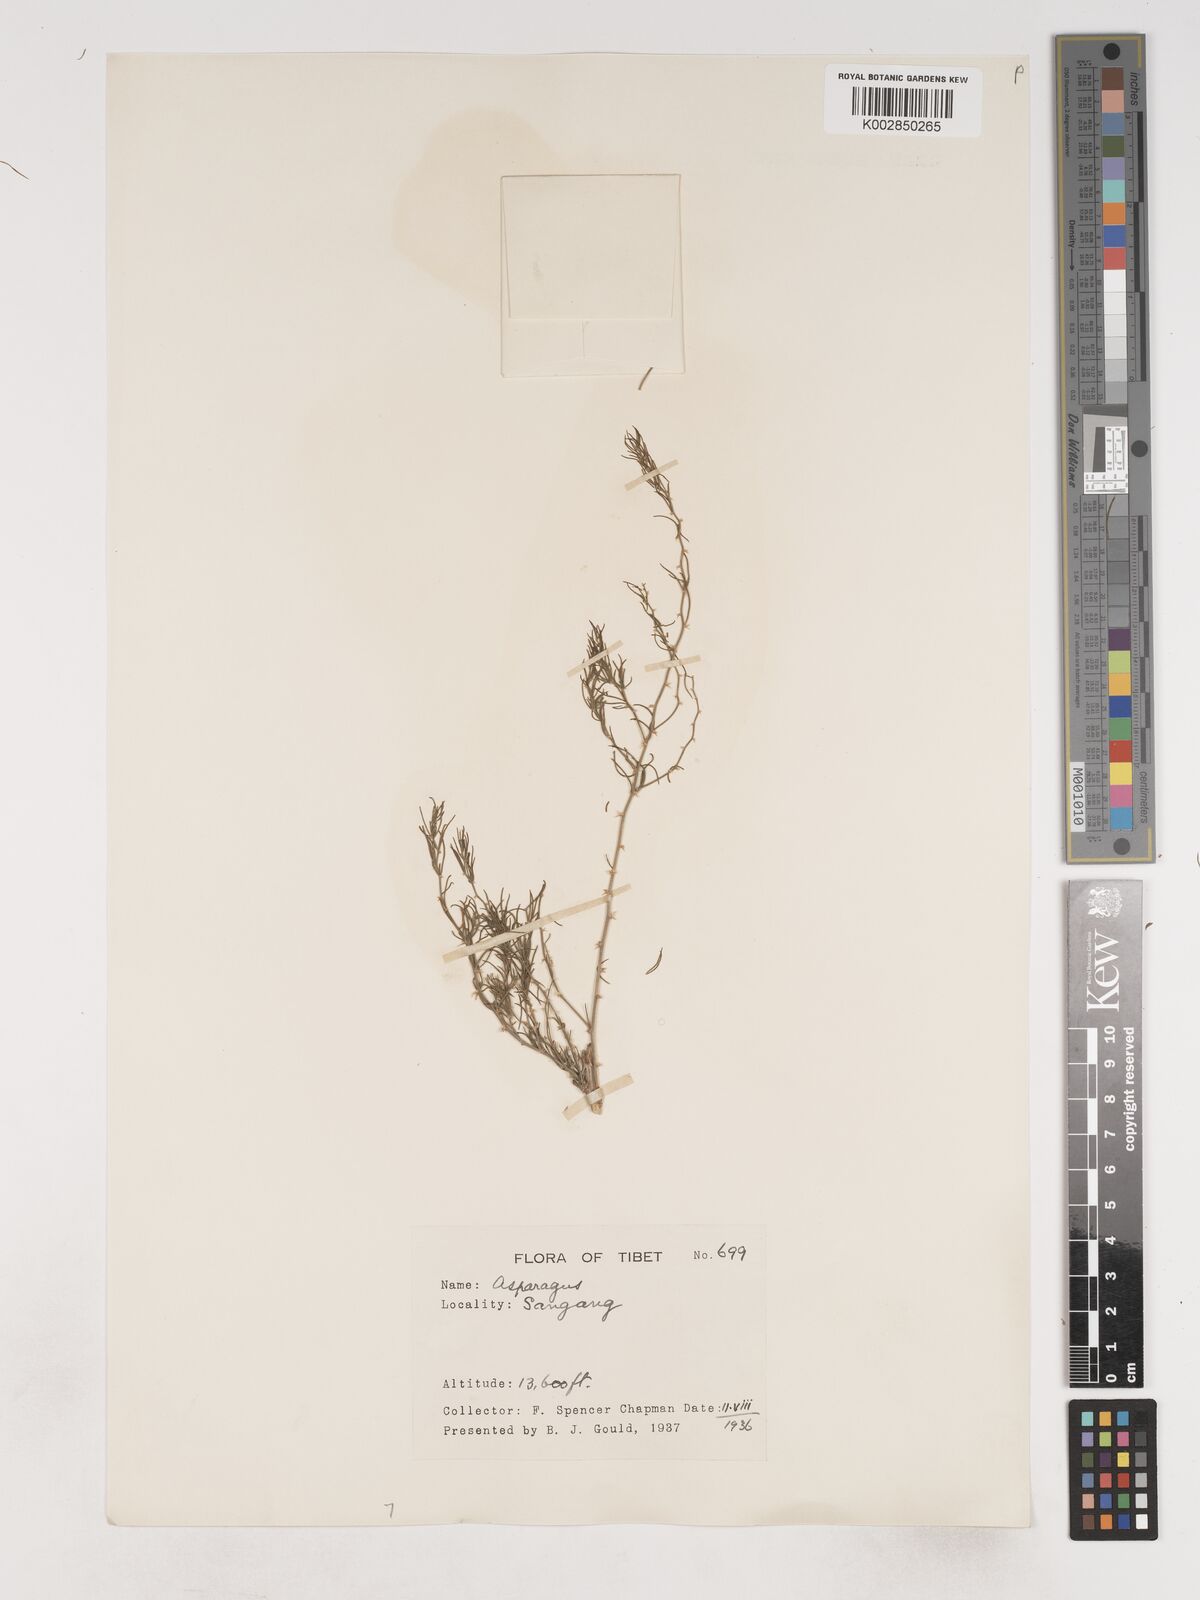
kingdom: Plantae
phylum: Tracheophyta
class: Liliopsida
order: Asparagales
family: Asparagaceae
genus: Asparagus
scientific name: Asparagus
